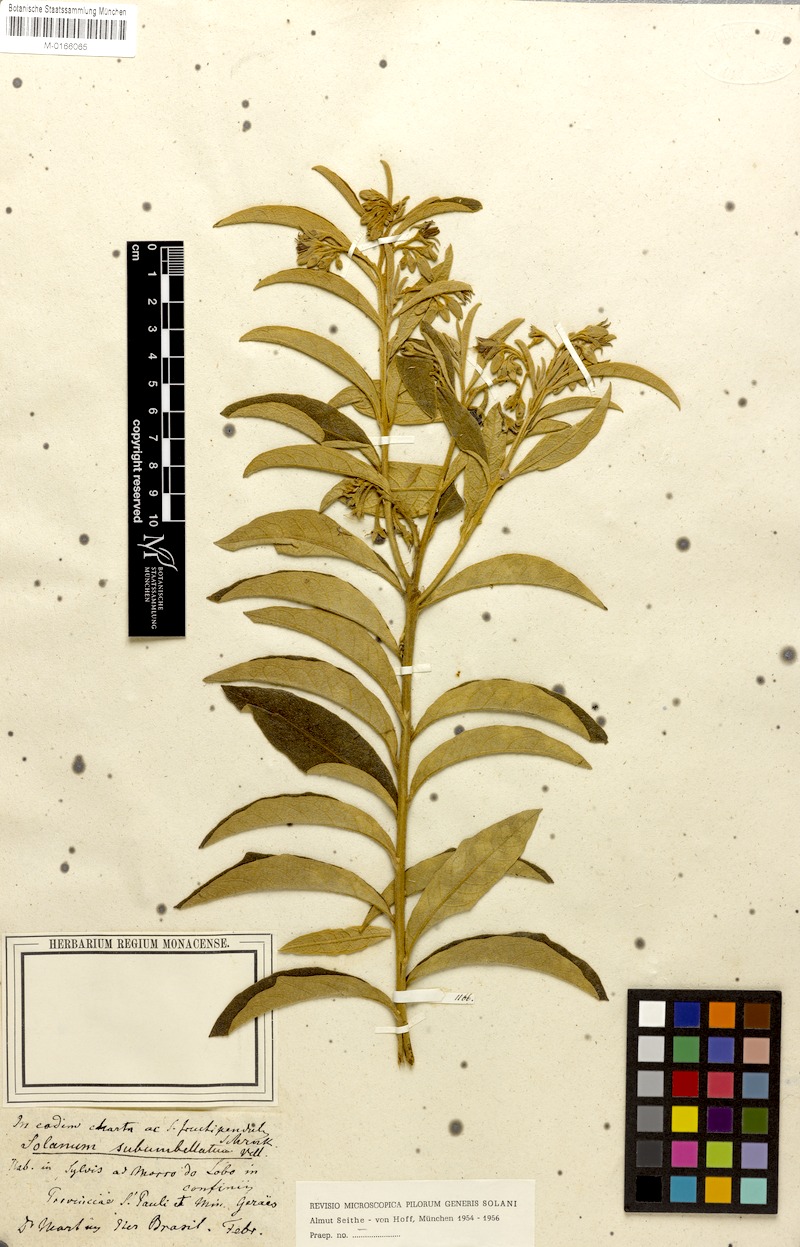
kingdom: Plantae
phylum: Tracheophyta
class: Magnoliopsida
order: Solanales
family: Solanaceae
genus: Solanum
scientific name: Solanum subumbellatum
